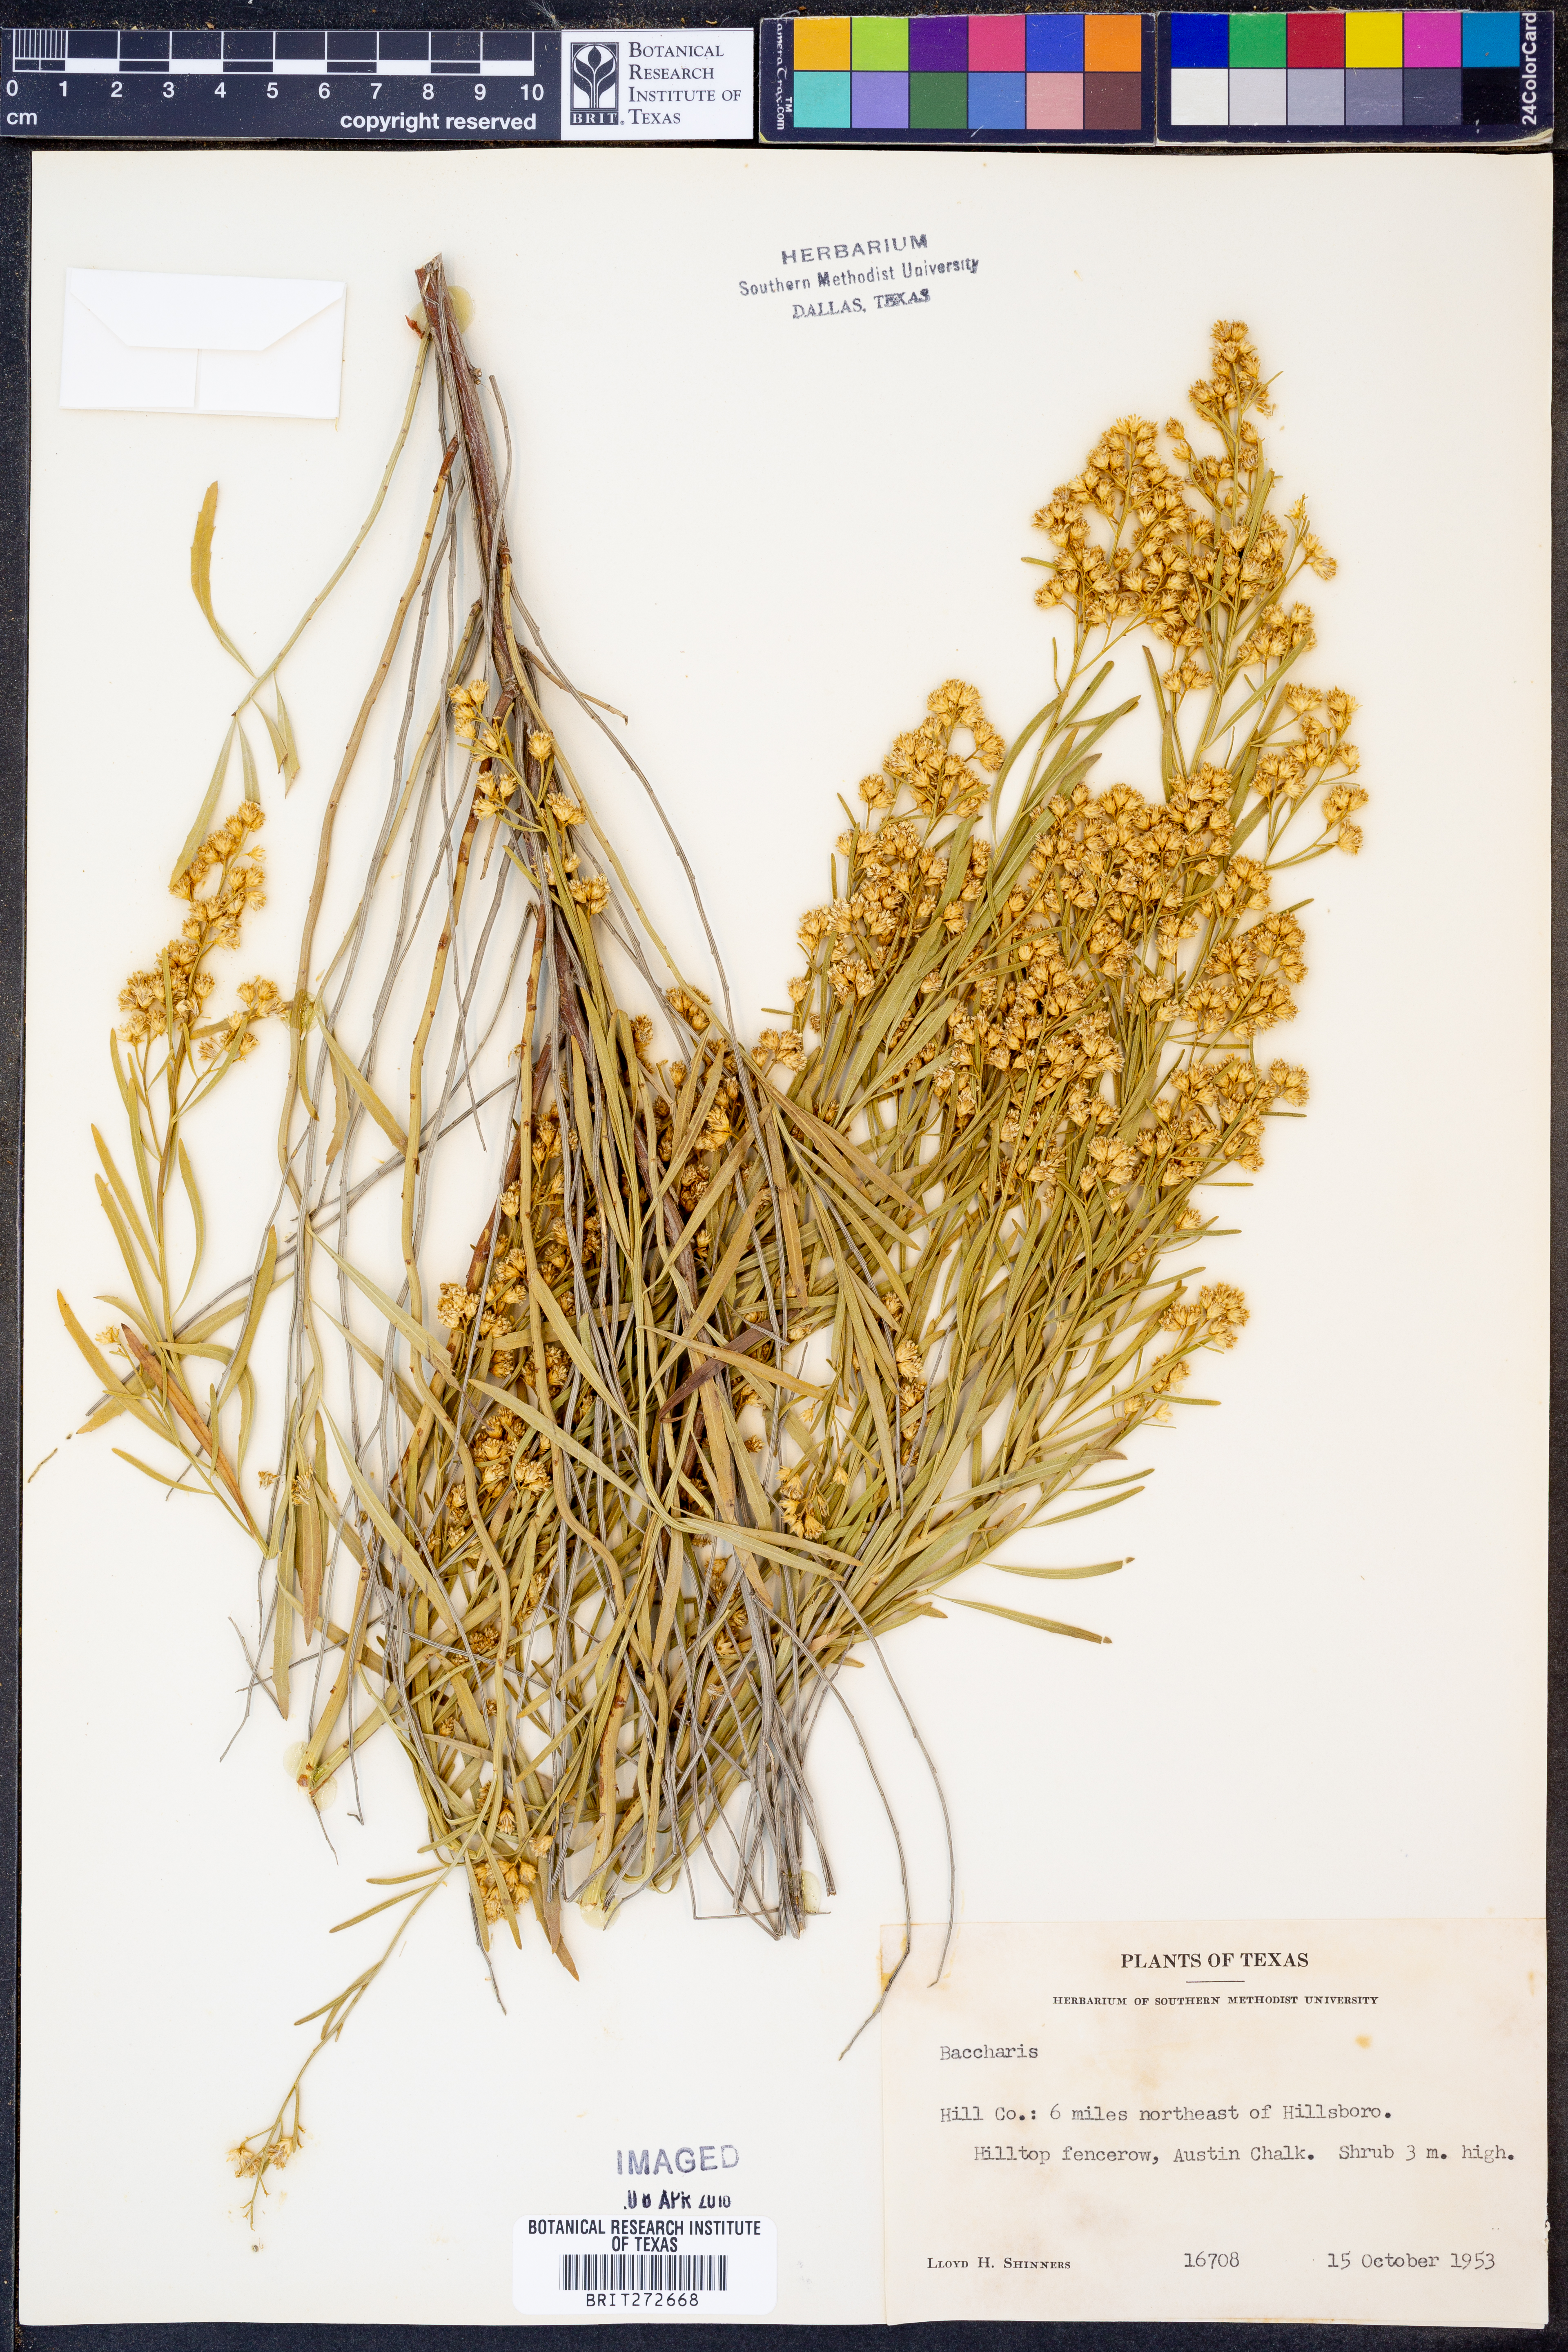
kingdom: Plantae
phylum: Tracheophyta
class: Magnoliopsida
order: Asterales
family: Asteraceae
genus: Baccharis
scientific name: Baccharis
